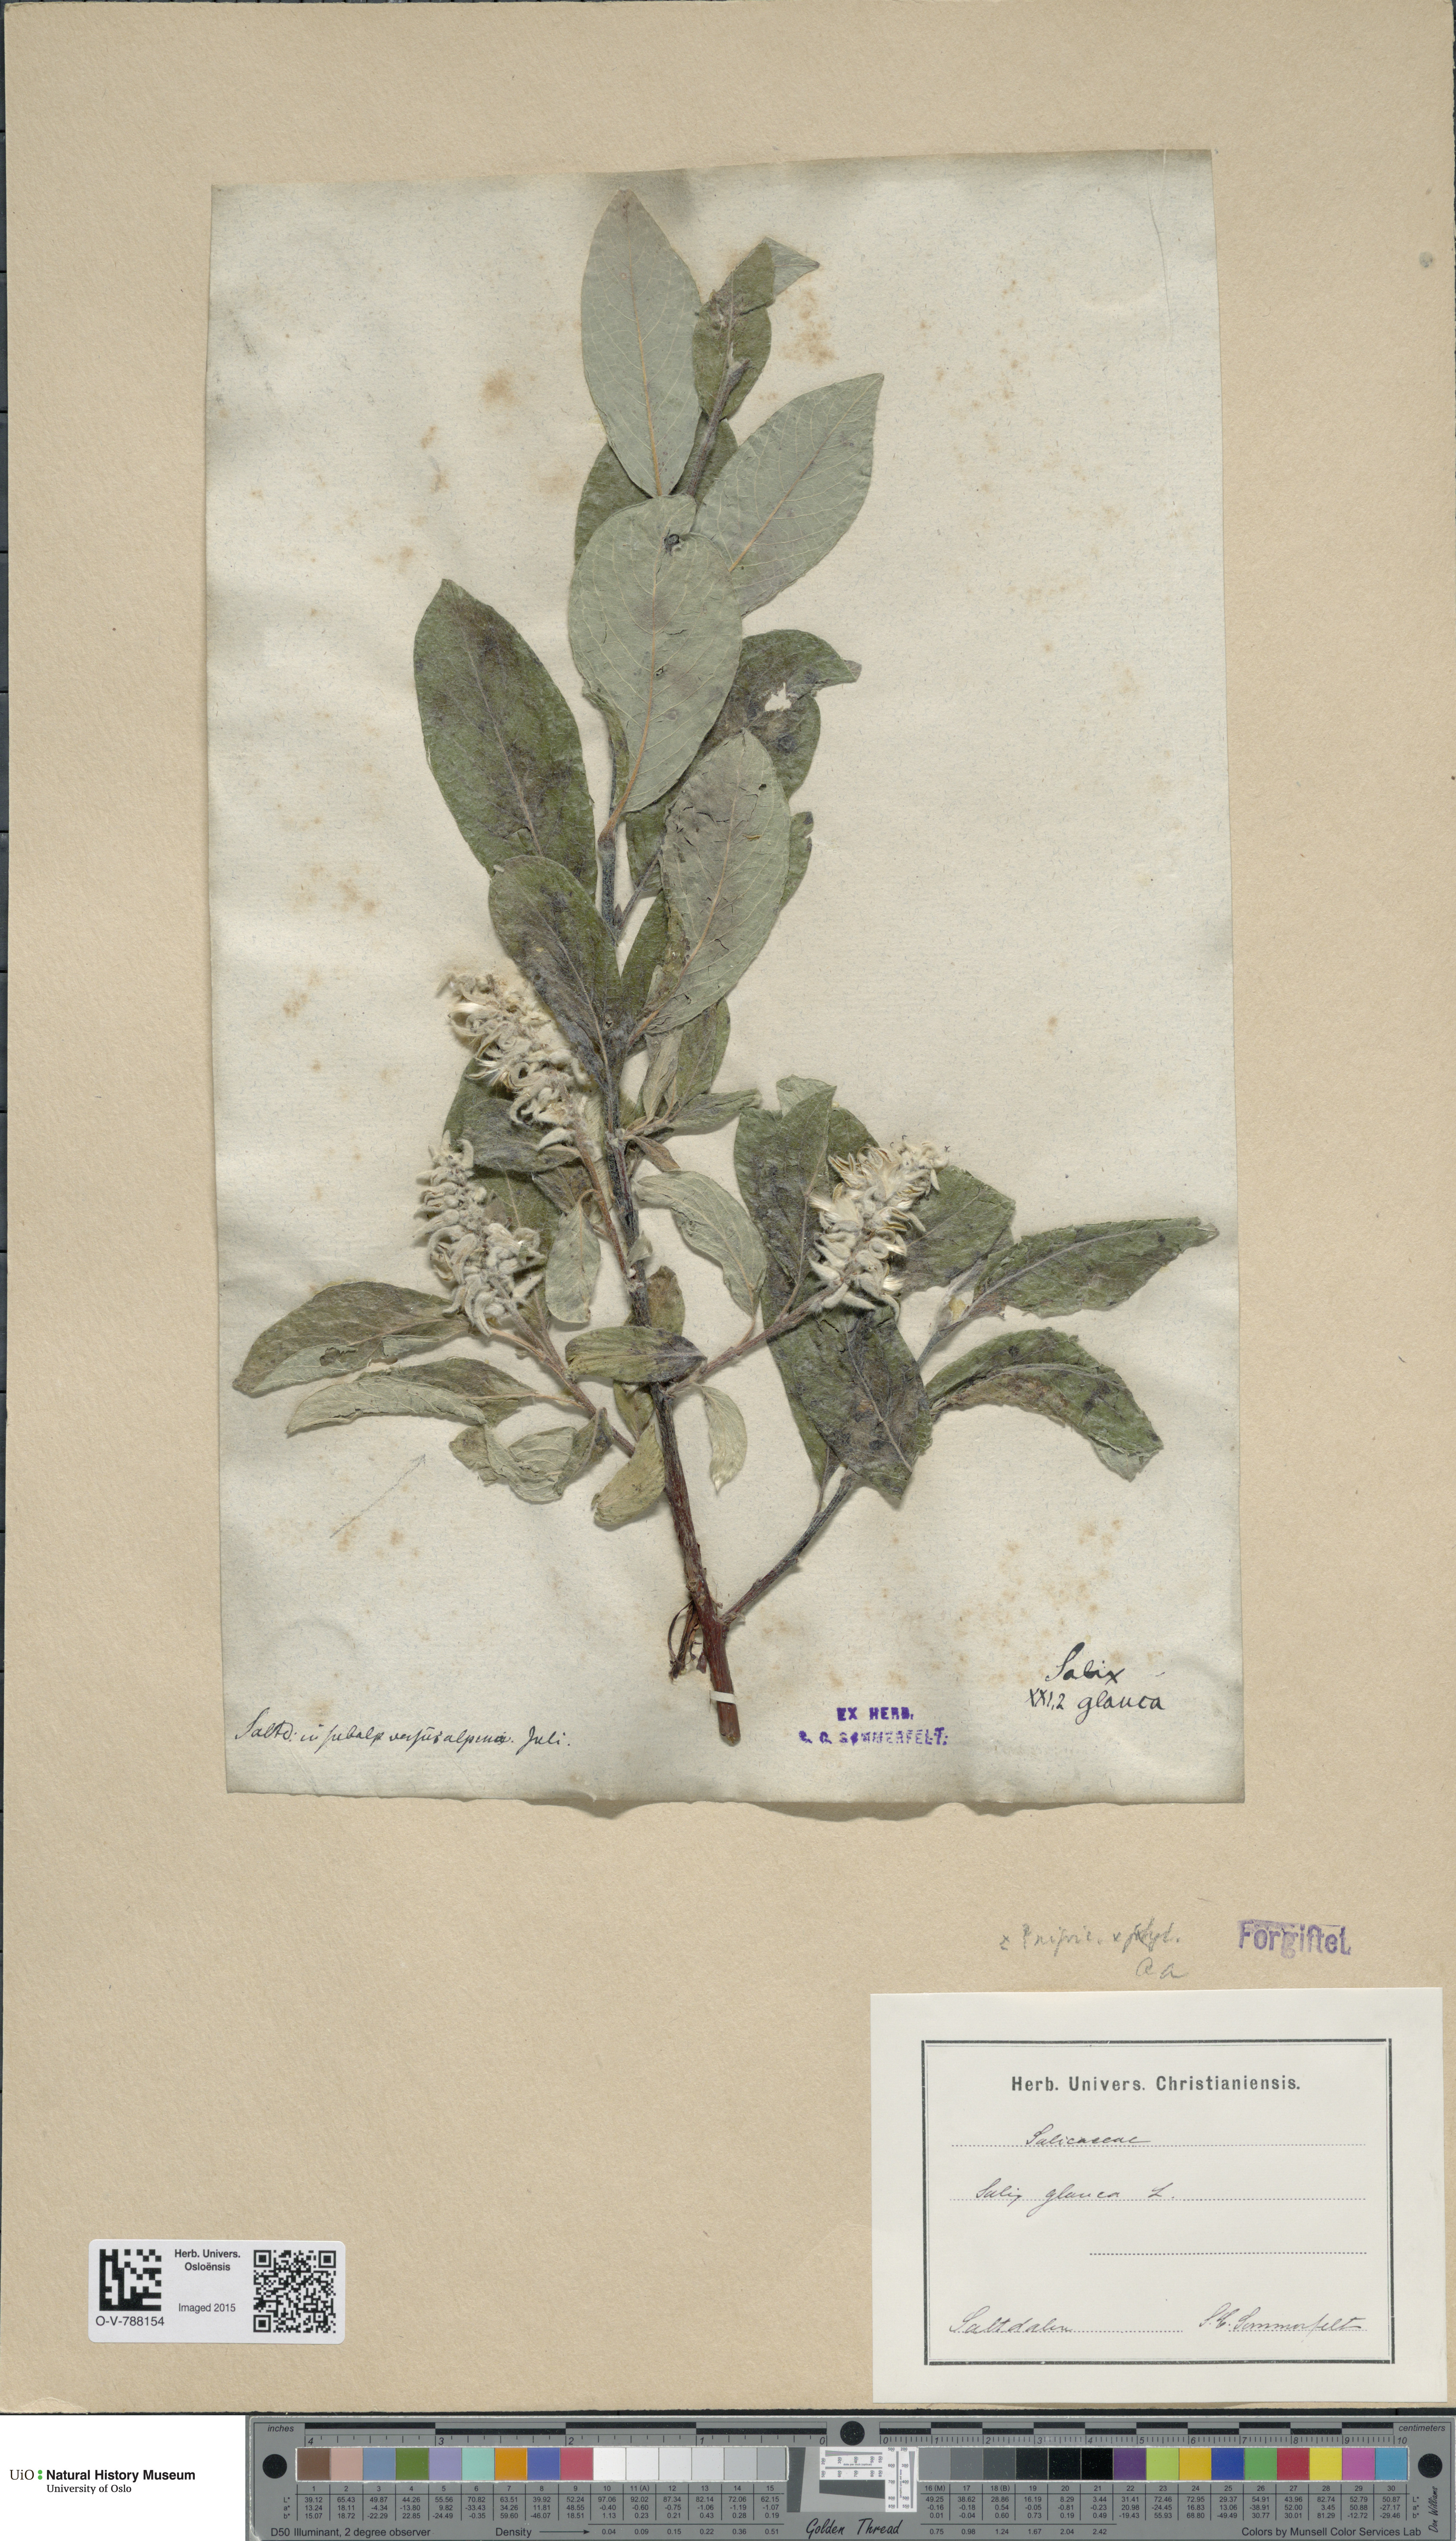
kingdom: Plantae
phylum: Tracheophyta
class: Magnoliopsida
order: Malpighiales
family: Salicaceae
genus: Salix
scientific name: Salix
